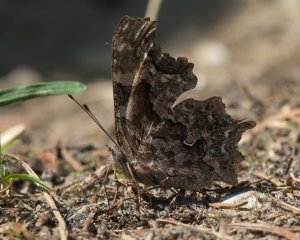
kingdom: Animalia
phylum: Arthropoda
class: Insecta
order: Lepidoptera
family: Nymphalidae
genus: Polygonia
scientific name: Polygonia faunus
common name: Green Comma
